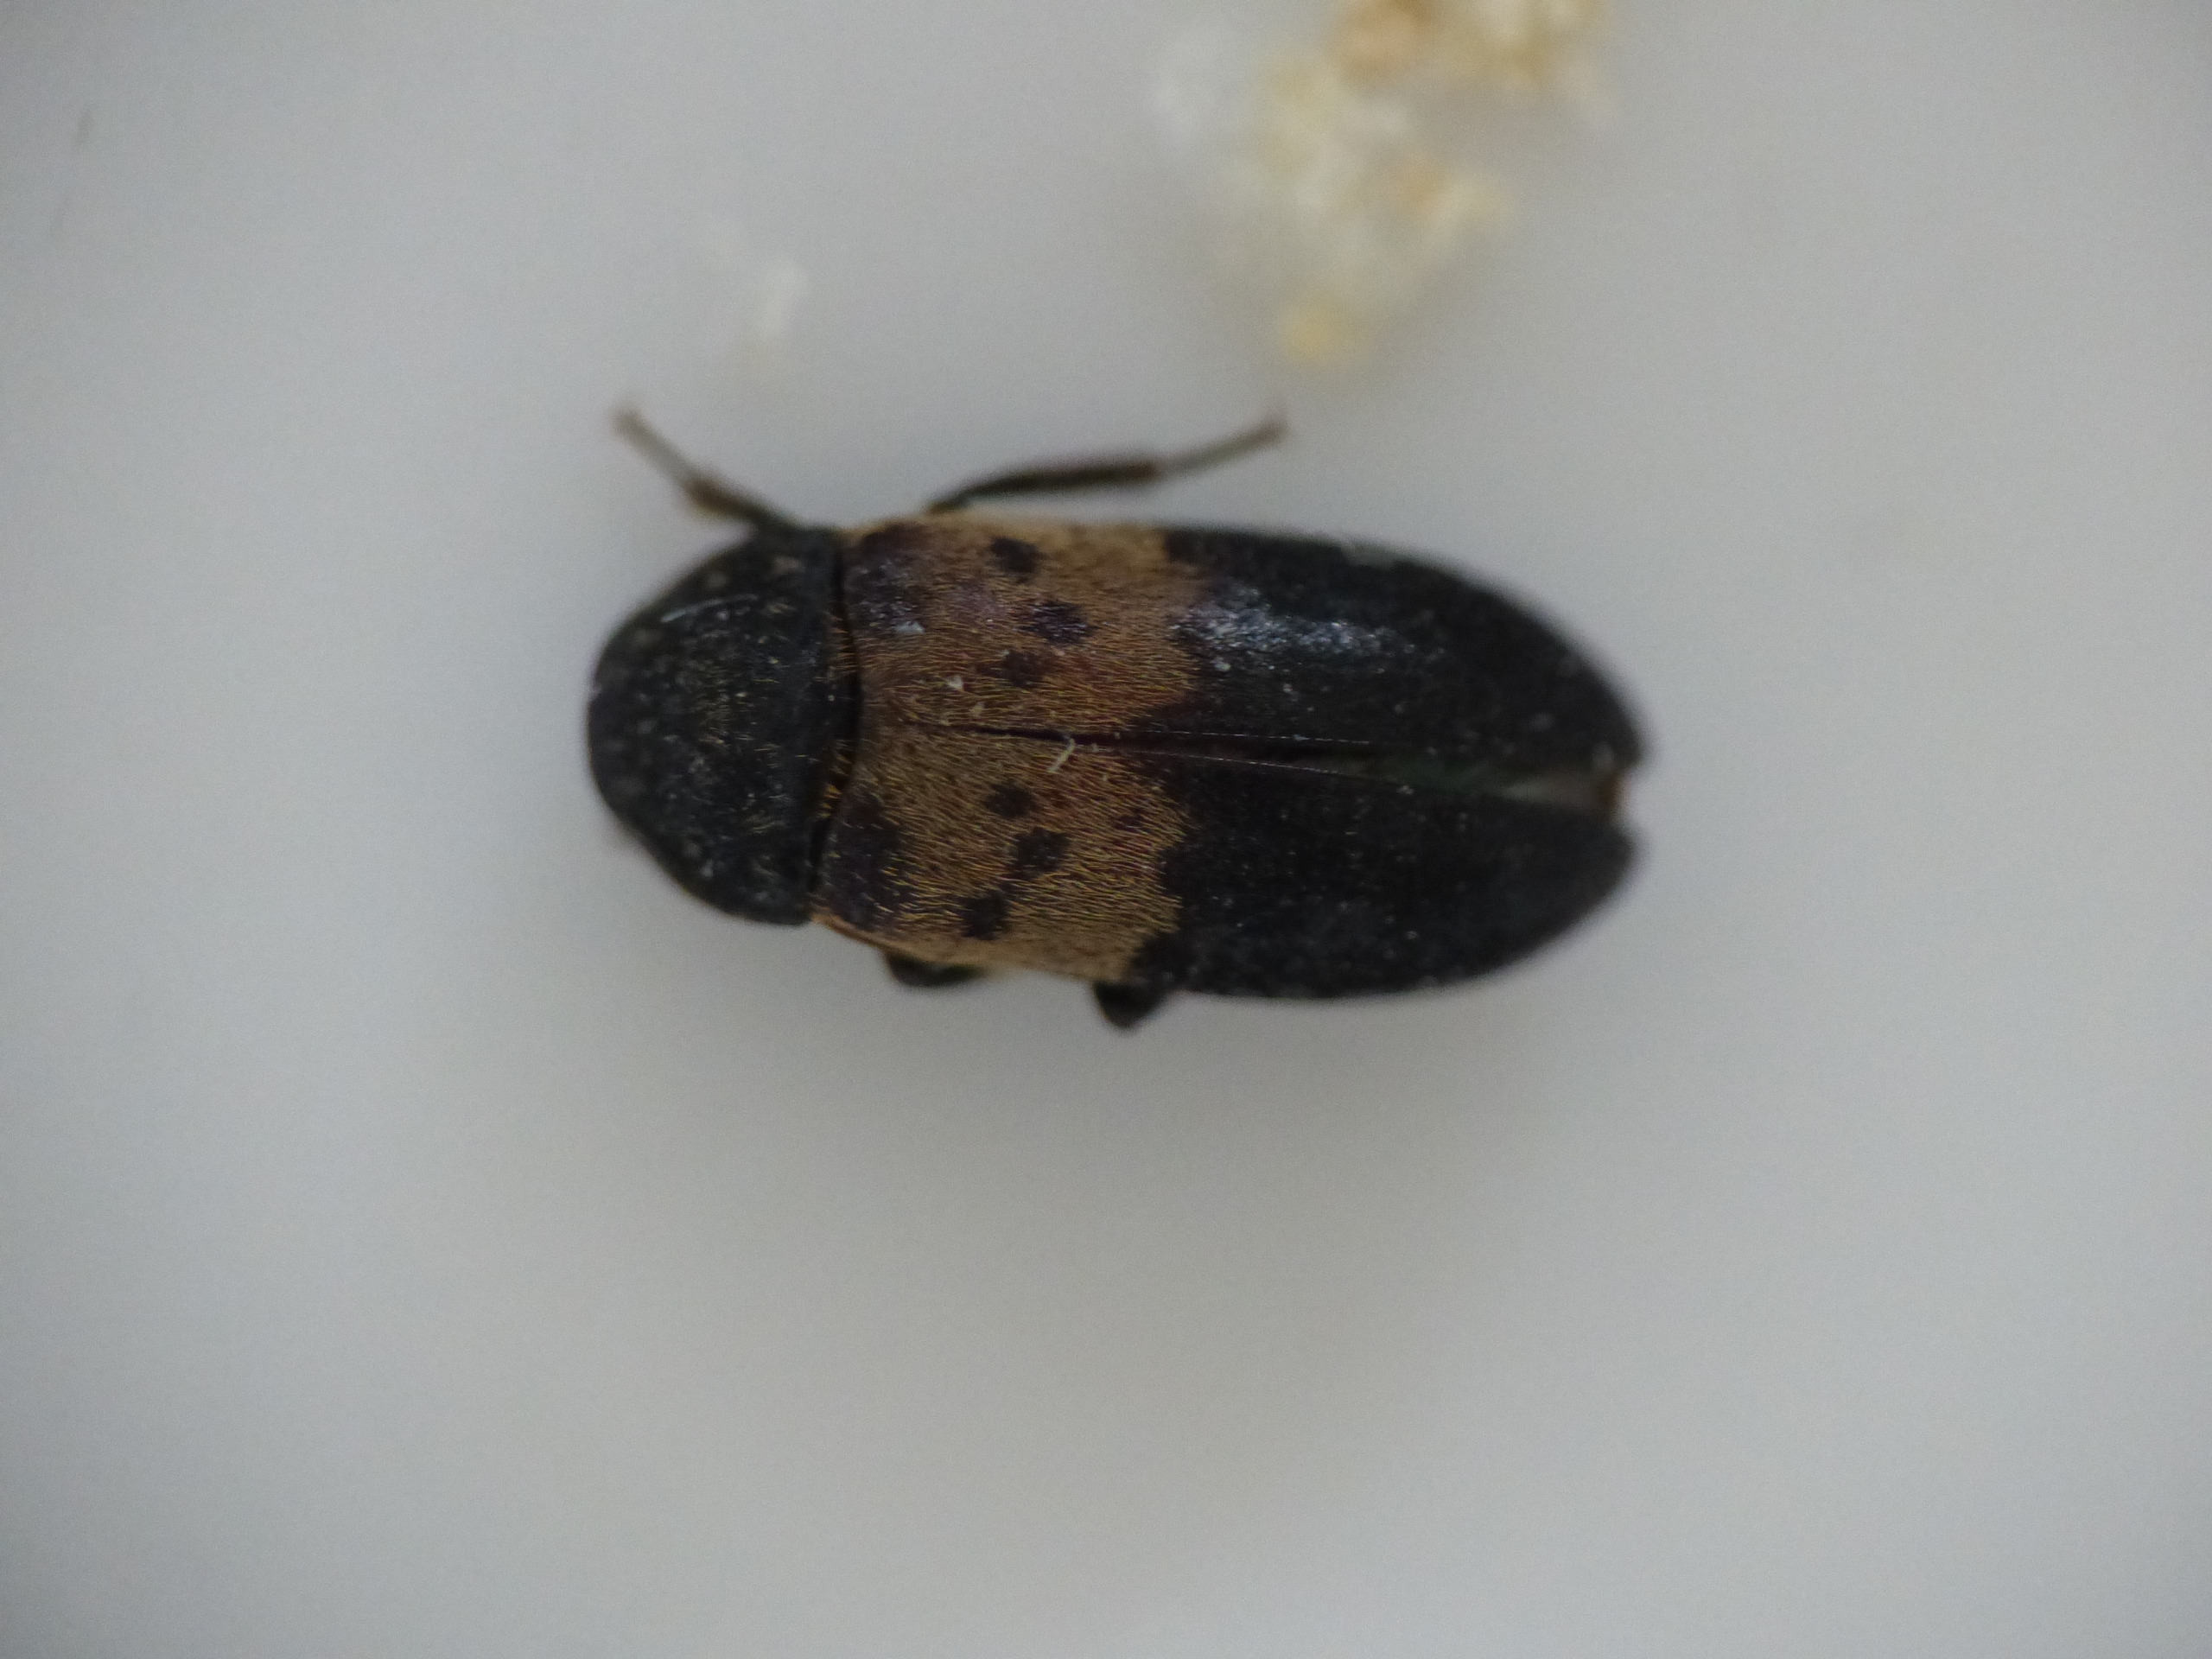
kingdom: Animalia
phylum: Arthropoda
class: Insecta
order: Coleoptera
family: Dermestidae
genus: Dermestes
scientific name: Dermestes lardarius
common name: Flæskeklanner
